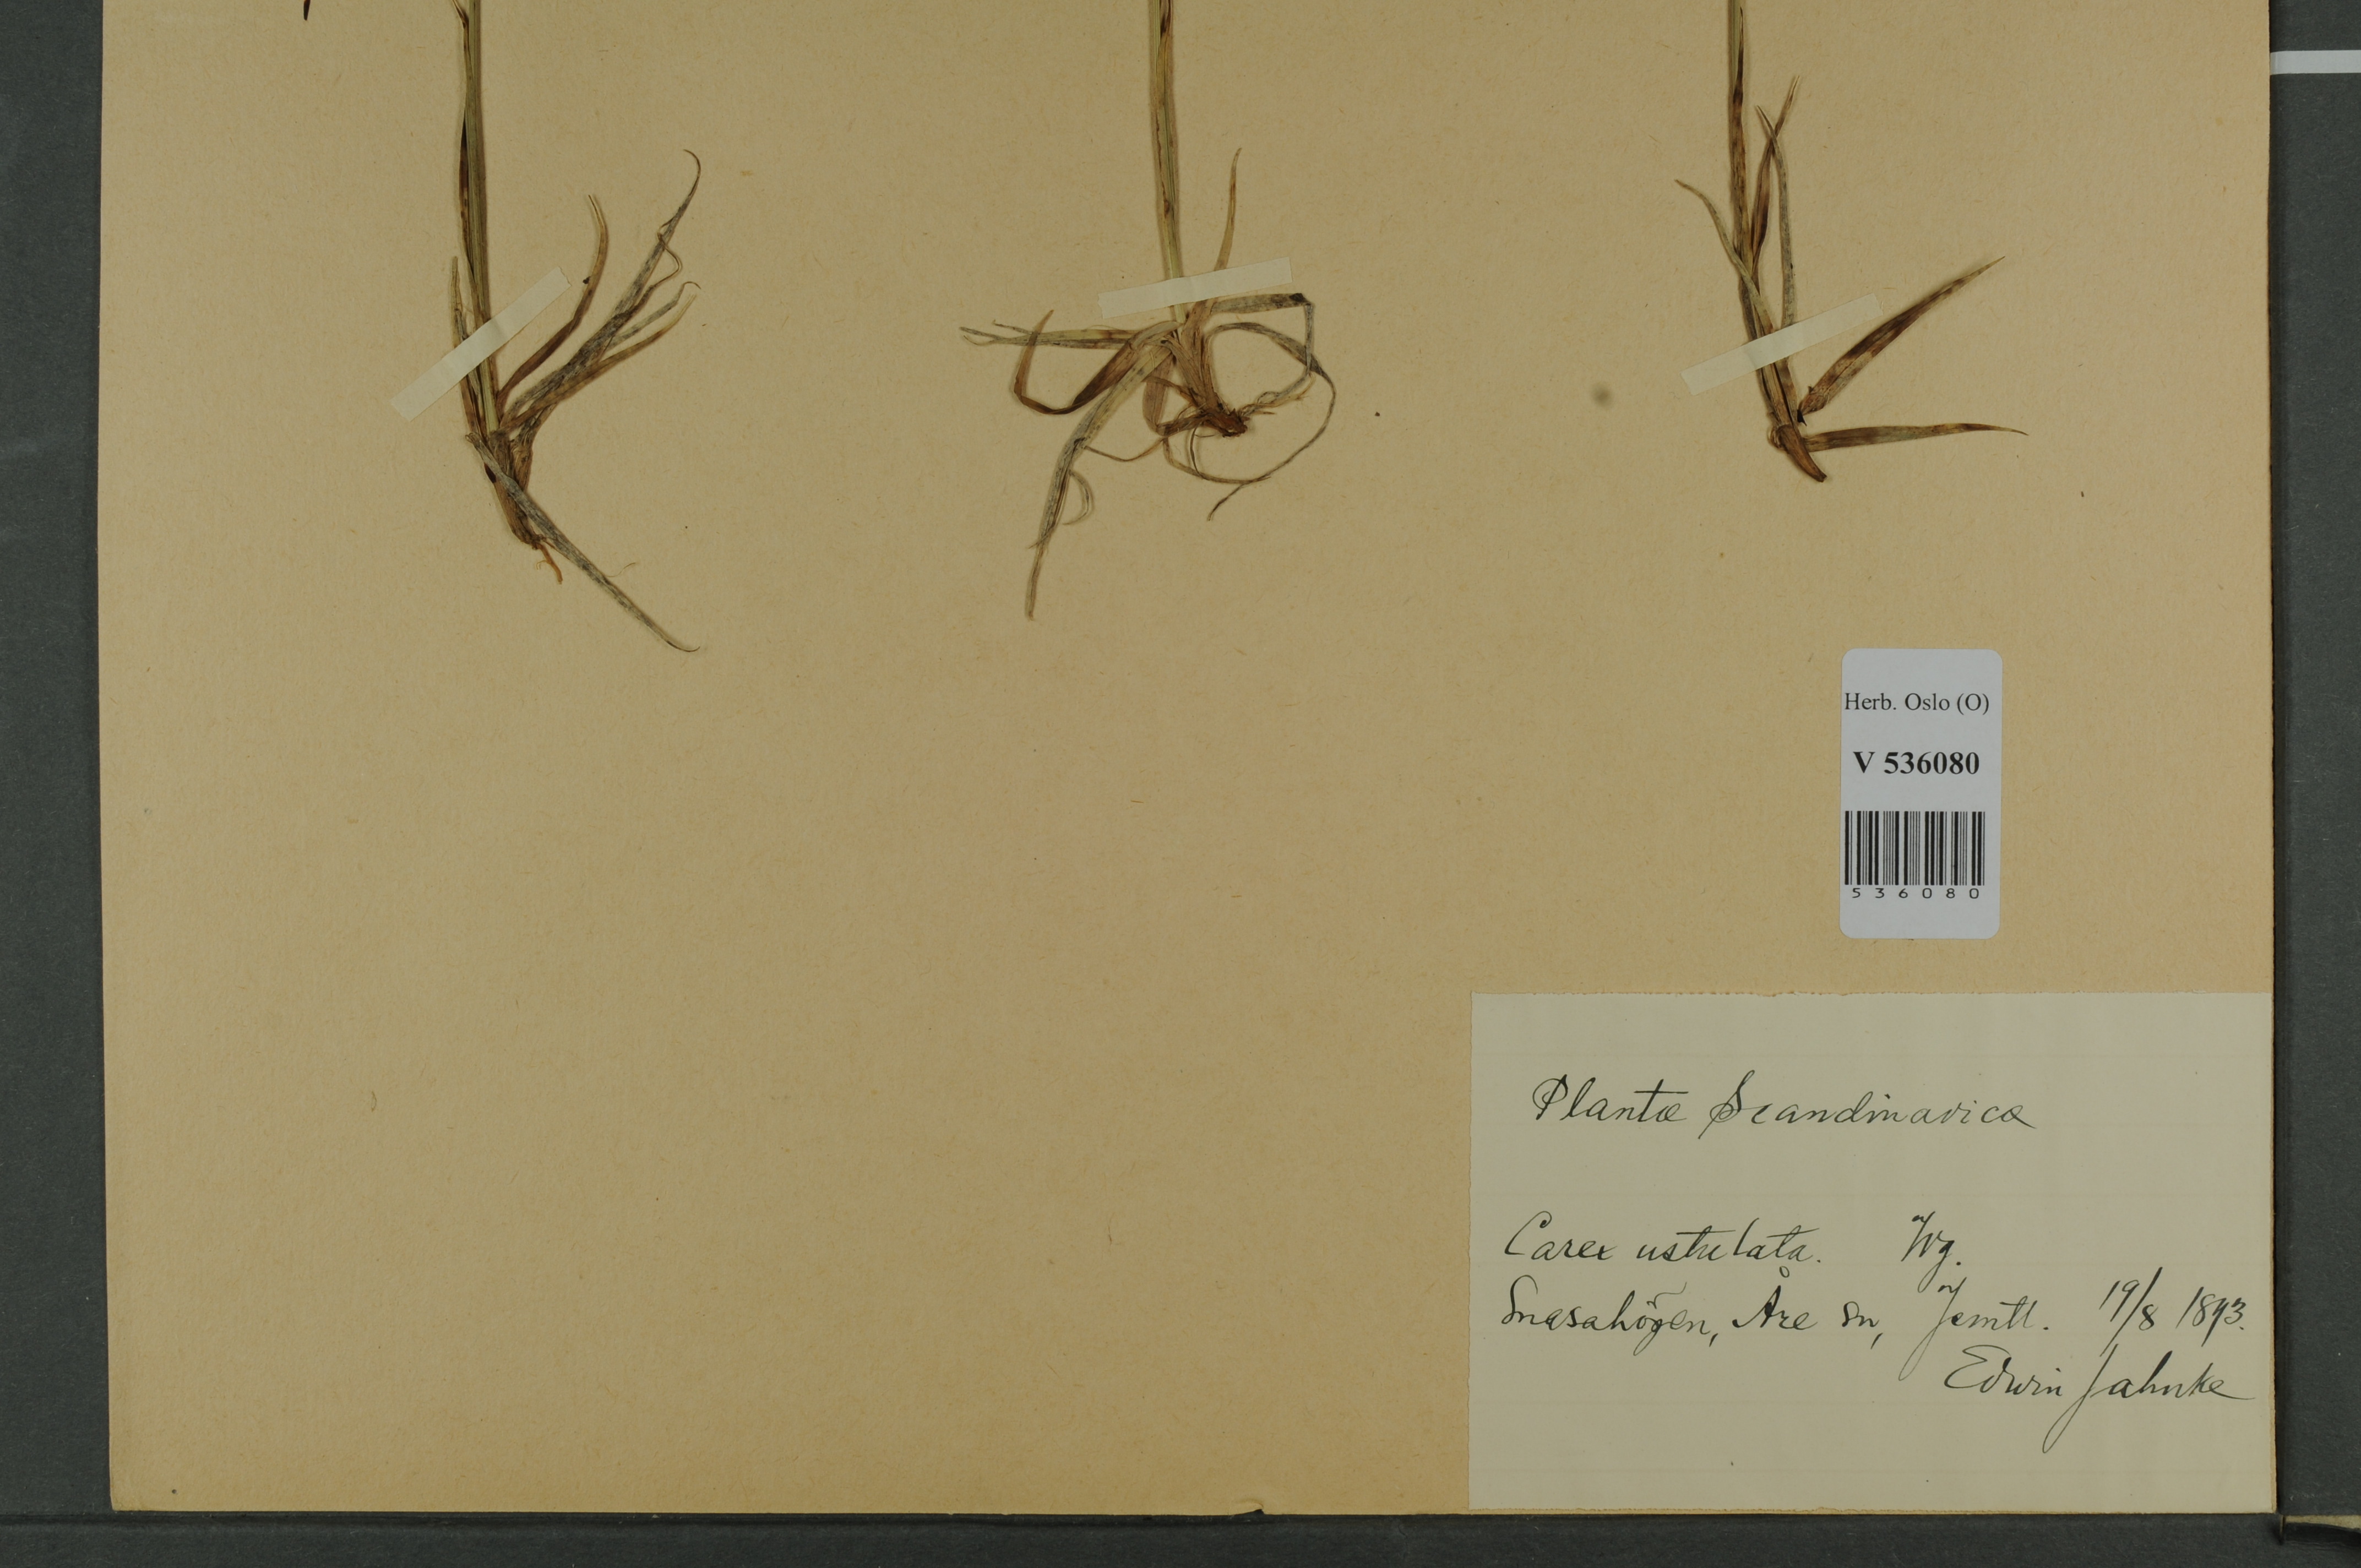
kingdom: Plantae
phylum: Tracheophyta
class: Liliopsida
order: Poales
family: Cyperaceae
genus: Carex
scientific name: Carex atrofusca
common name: Scorched alpine-sedge
